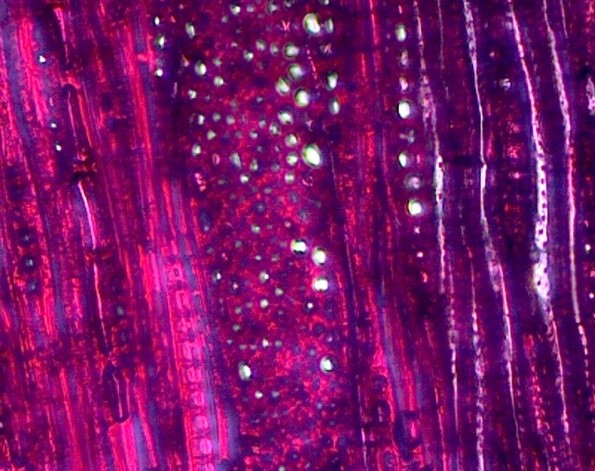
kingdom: Plantae
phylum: Tracheophyta
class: Magnoliopsida
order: Fagales
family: Fagaceae
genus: Quercus
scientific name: Quercus rubra
